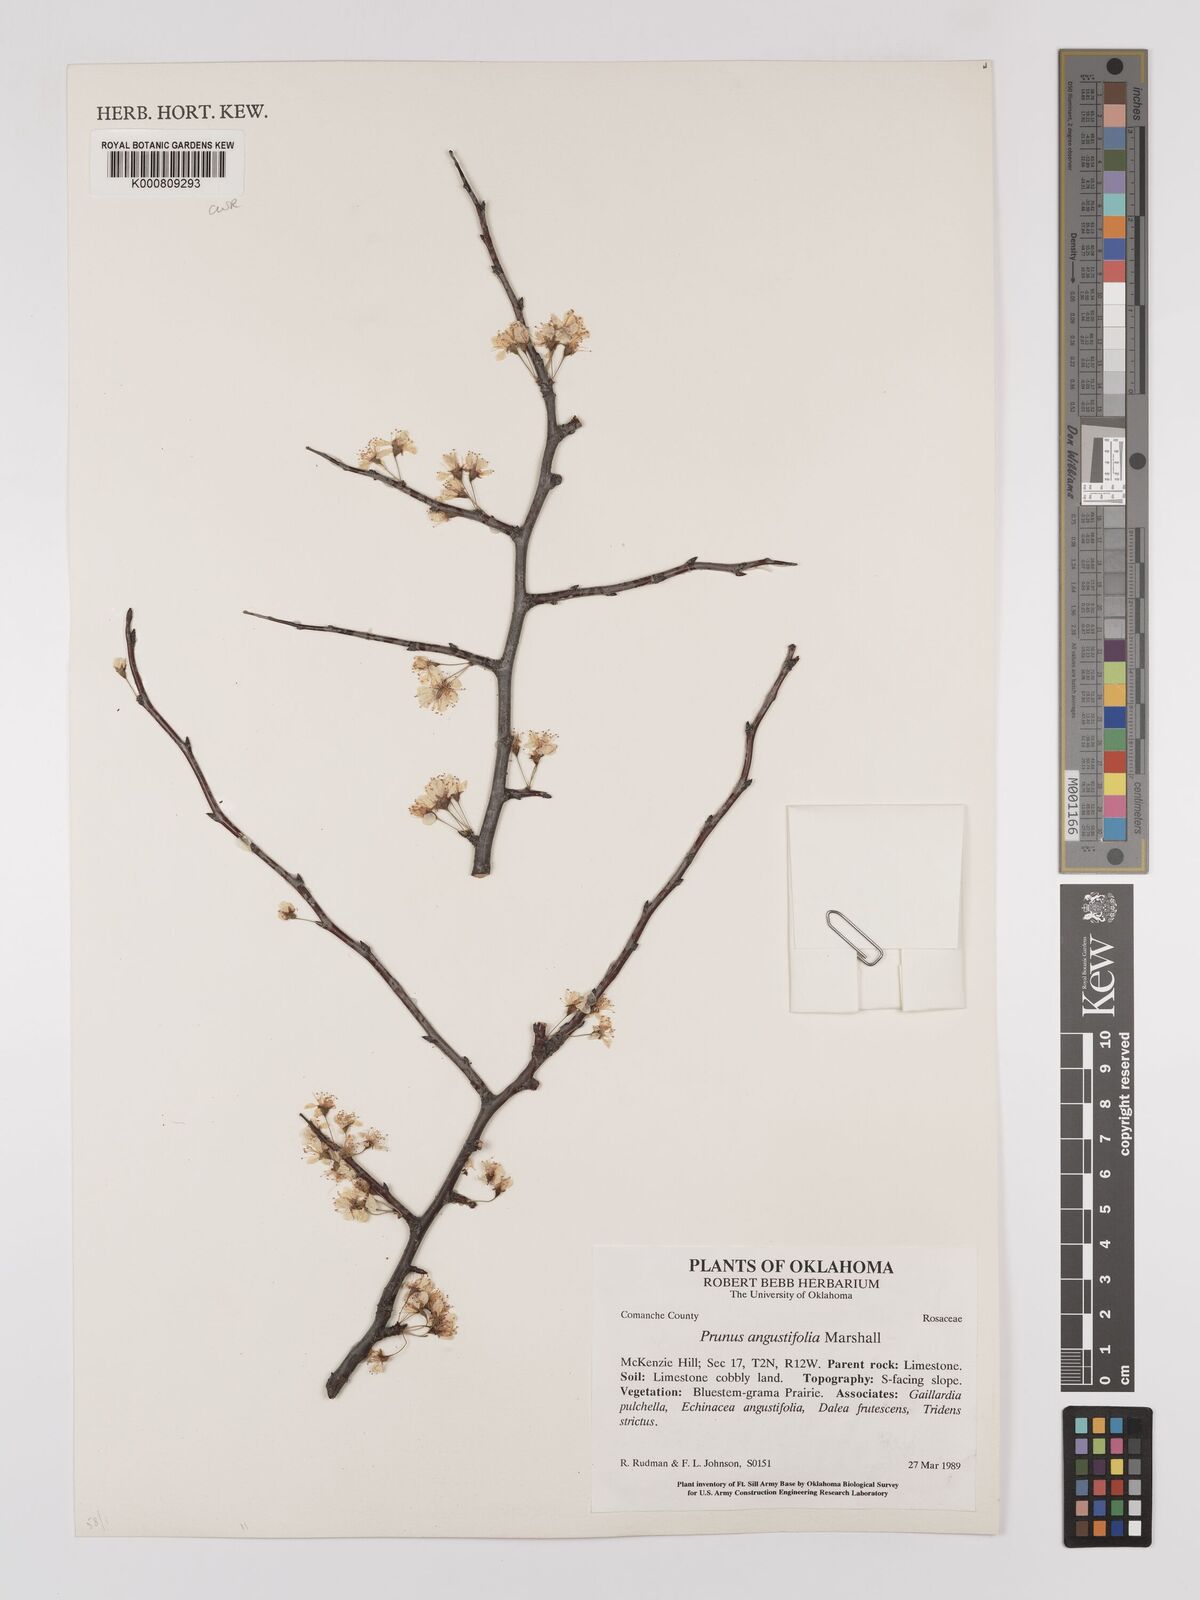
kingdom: Plantae
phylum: Tracheophyta
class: Magnoliopsida
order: Rosales
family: Rosaceae
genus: Prunus
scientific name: Prunus angustifolia
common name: Cherokee plum
